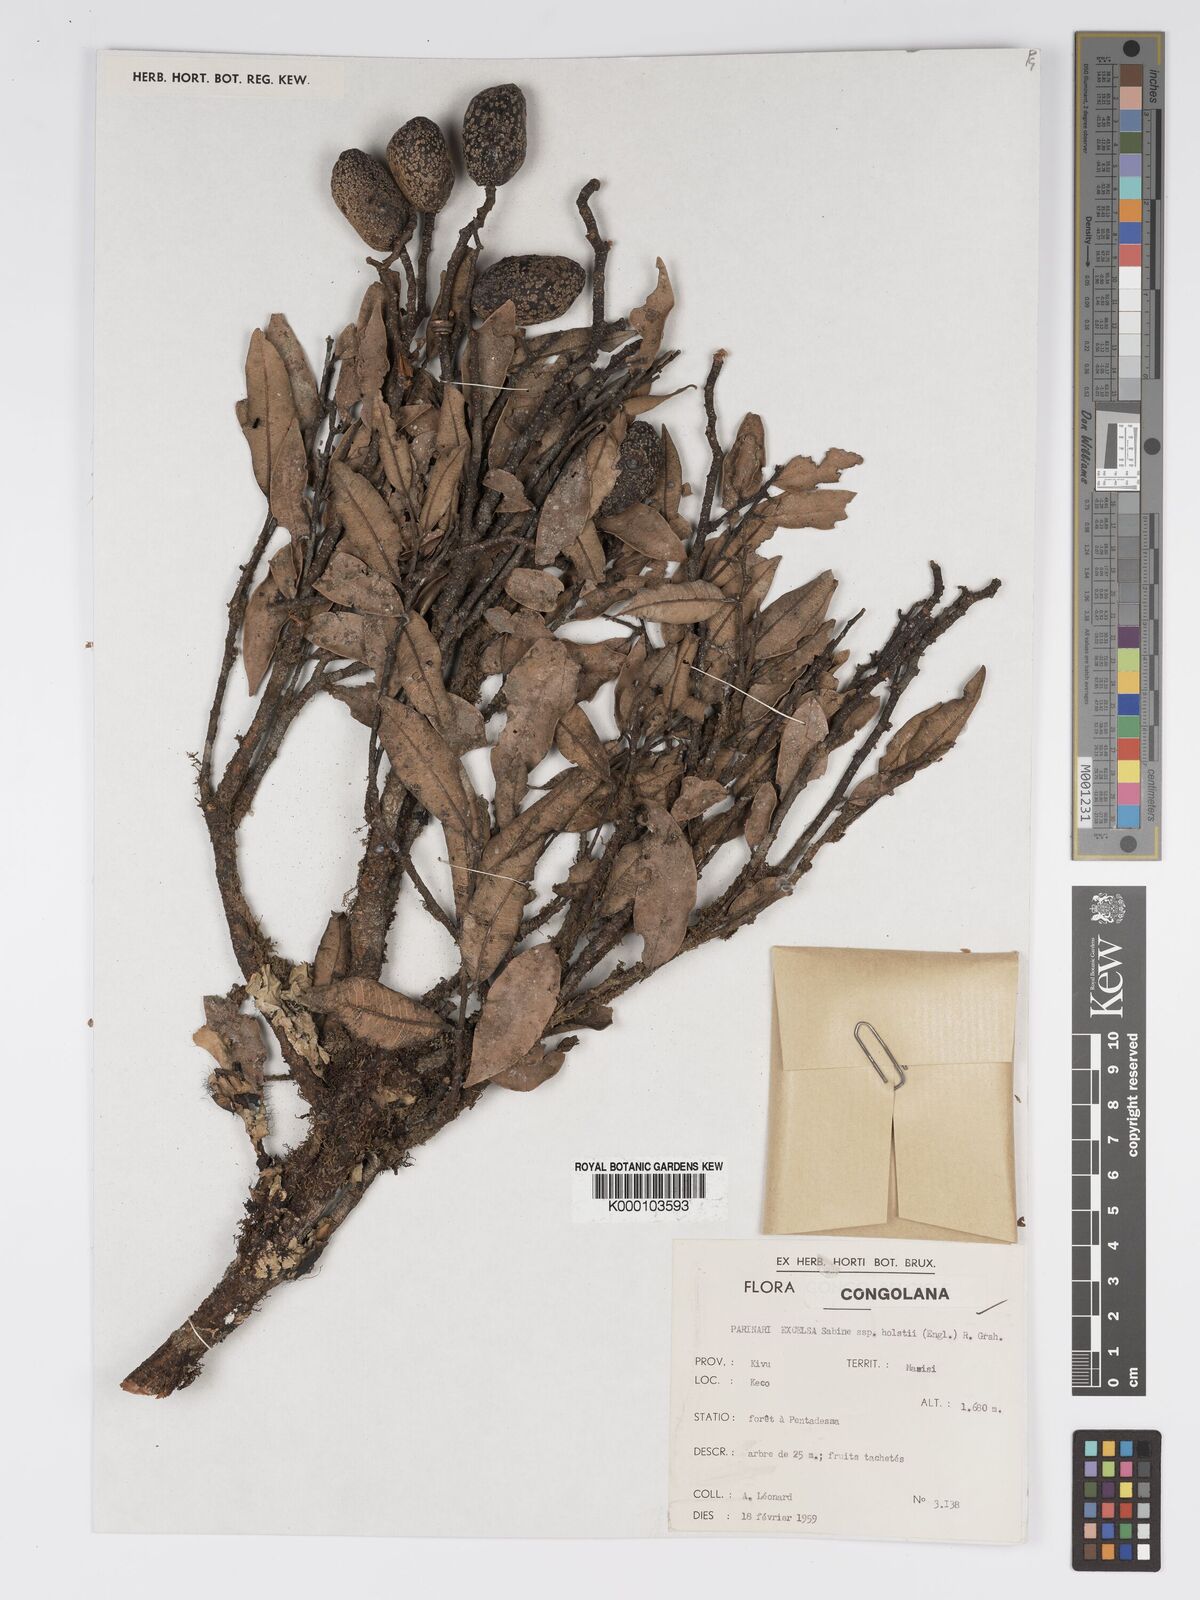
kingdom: Plantae
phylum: Tracheophyta
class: Magnoliopsida
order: Malpighiales
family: Chrysobalanaceae
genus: Parinari
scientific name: Parinari excelsa
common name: Guinea-plum
